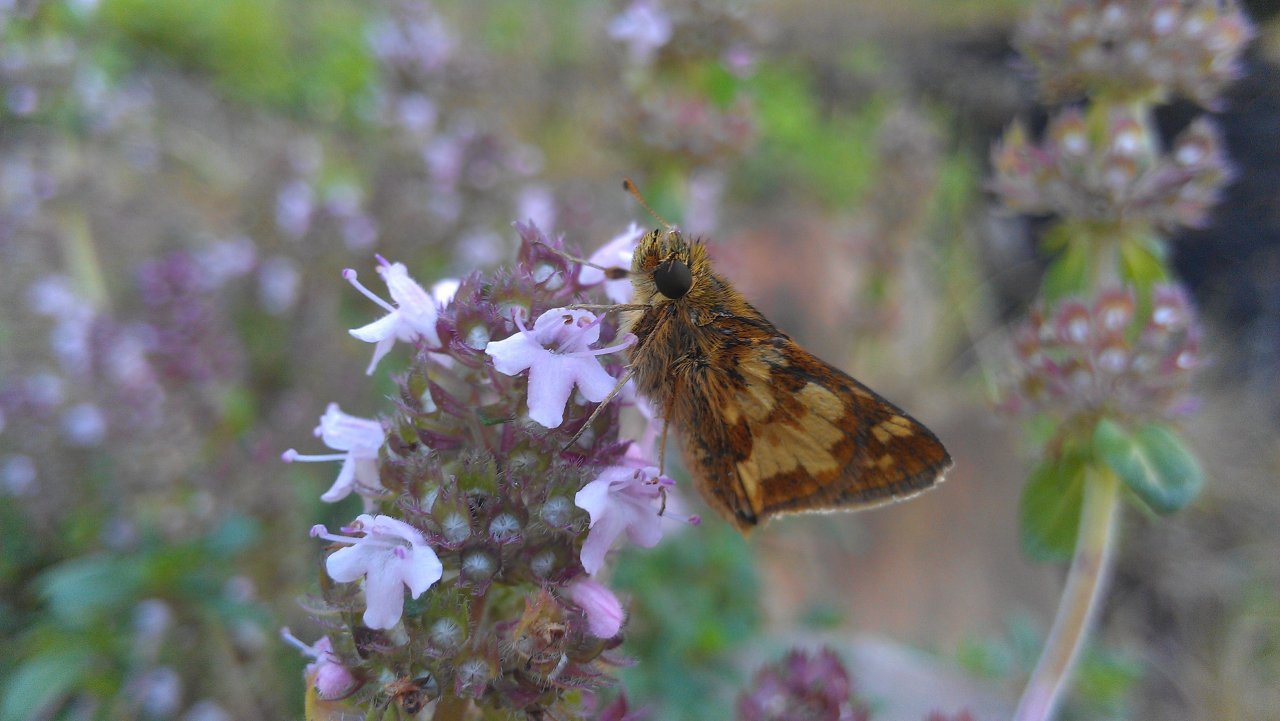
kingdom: Animalia
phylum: Arthropoda
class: Insecta
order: Lepidoptera
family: Hesperiidae
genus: Polites
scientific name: Polites coras
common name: Peck's Skipper
